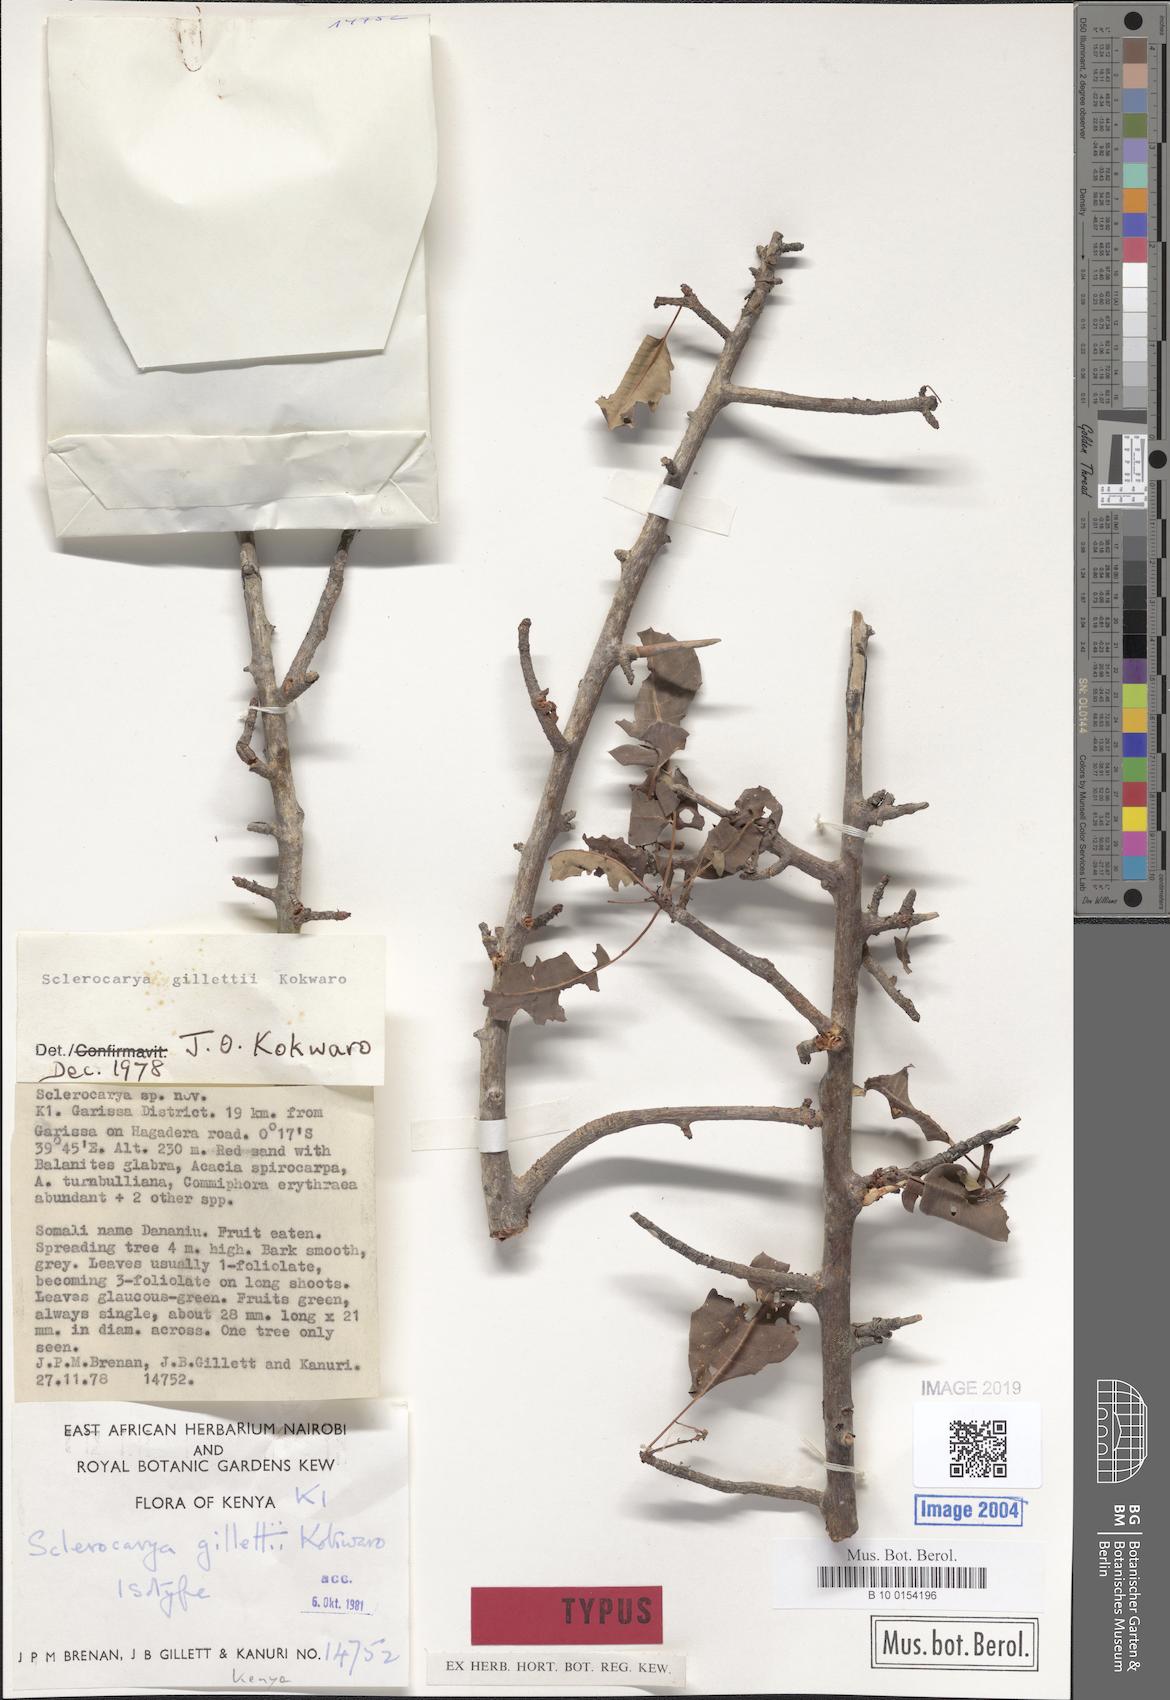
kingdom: Plantae
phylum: Tracheophyta
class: Magnoliopsida
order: Sapindales
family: Anacardiaceae
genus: Sclerocarya
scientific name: Sclerocarya gillettii
